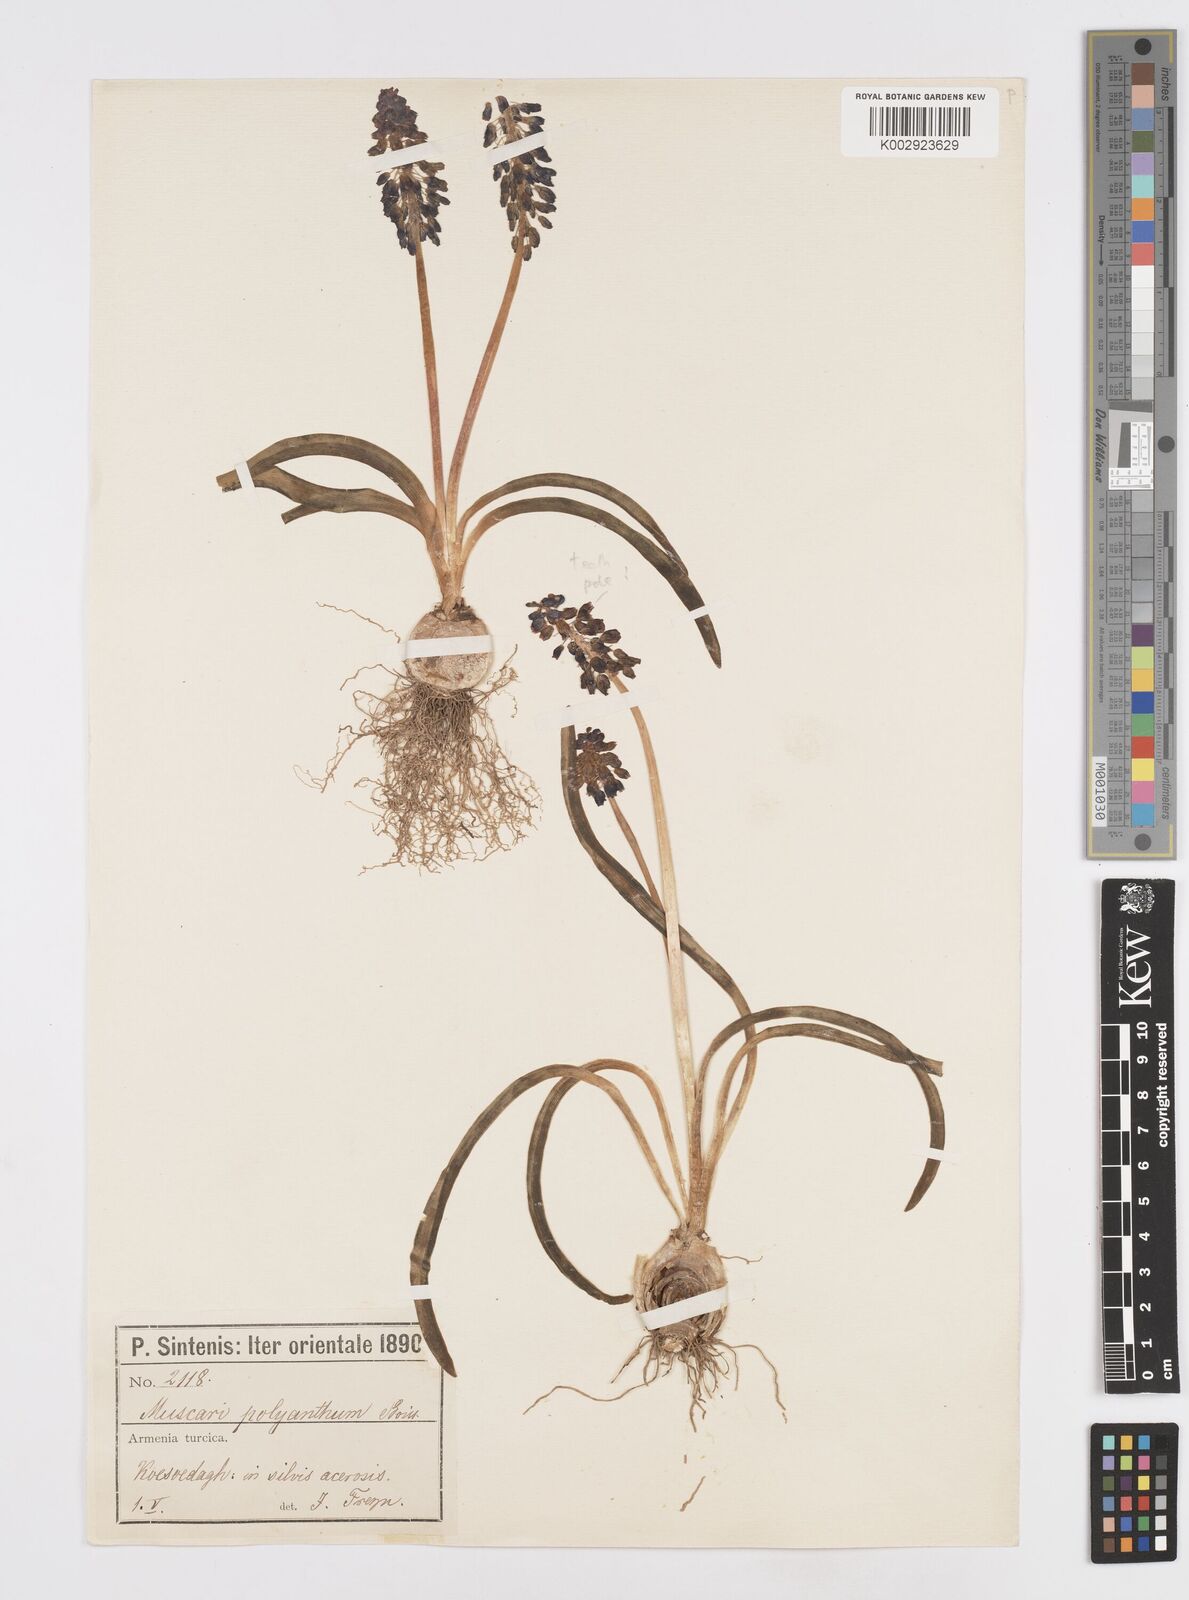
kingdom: Plantae
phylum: Tracheophyta
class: Liliopsida
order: Asparagales
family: Asparagaceae
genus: Muscari
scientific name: Muscari armeniacum
